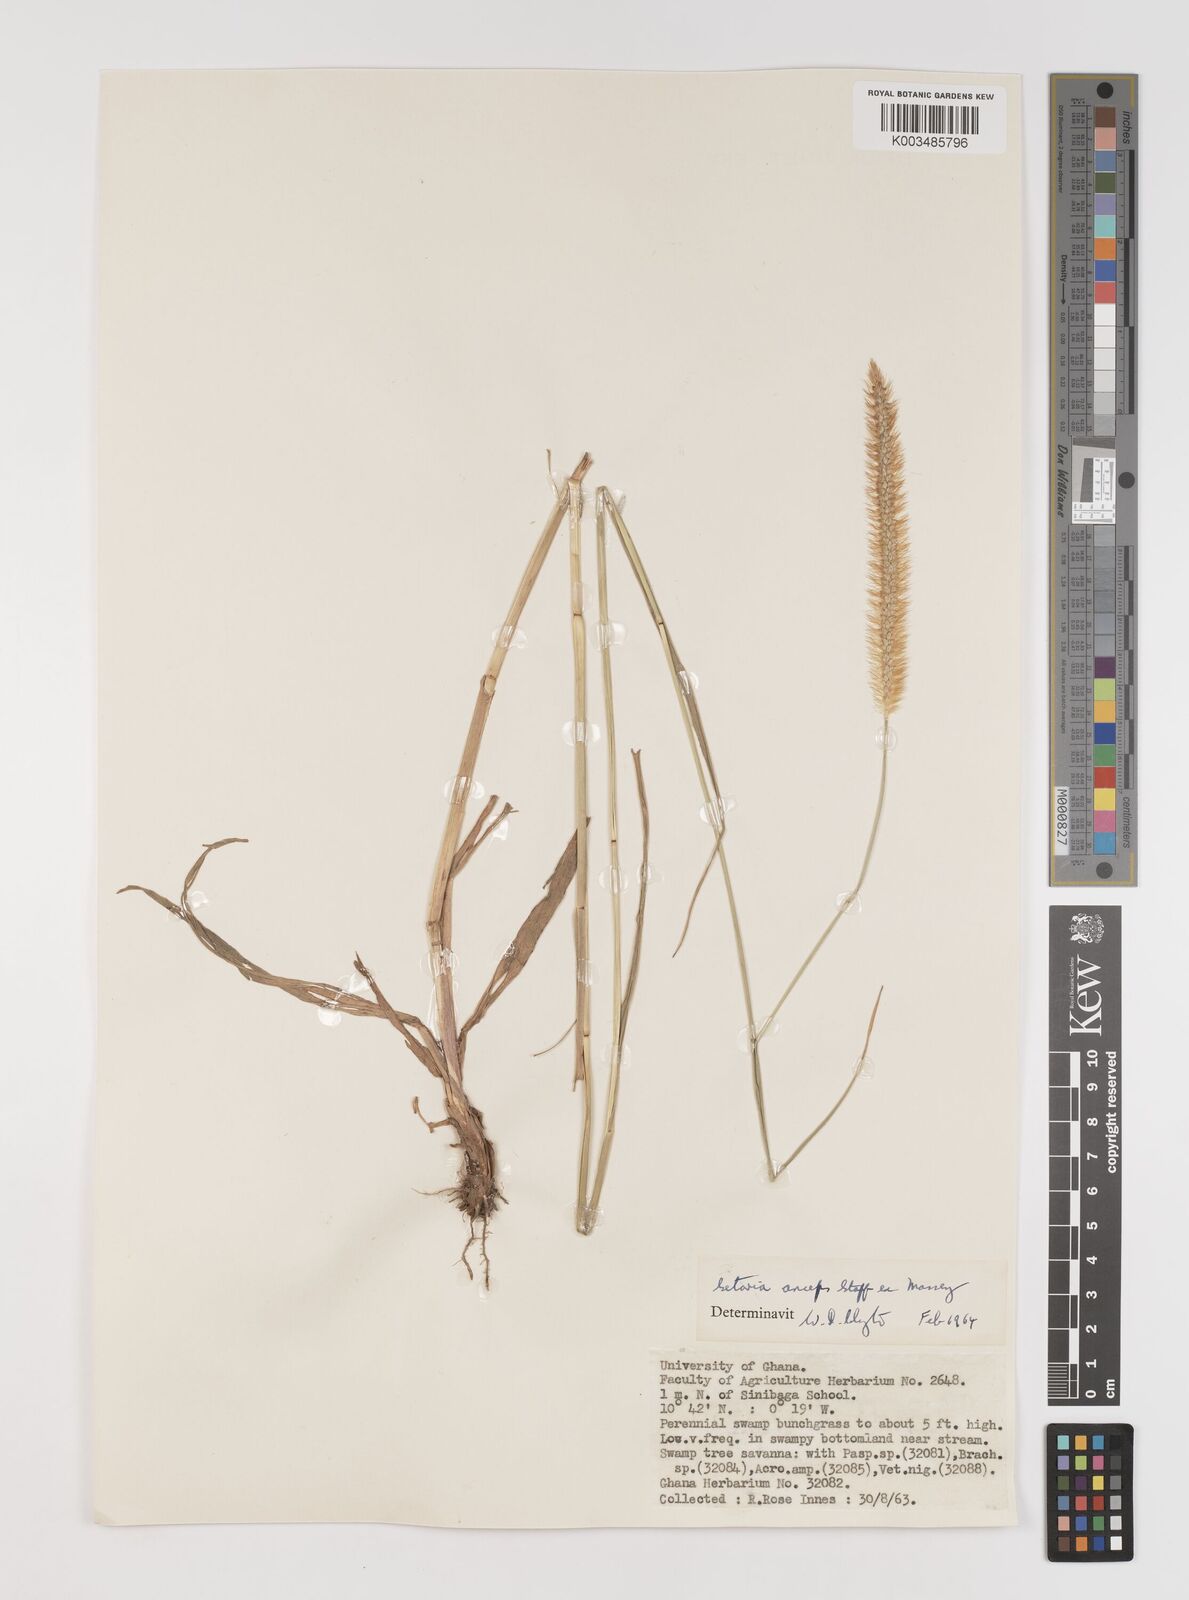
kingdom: Plantae
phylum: Tracheophyta
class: Liliopsida
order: Poales
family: Poaceae
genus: Setaria
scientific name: Setaria sphacelata
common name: African bristlegrass
